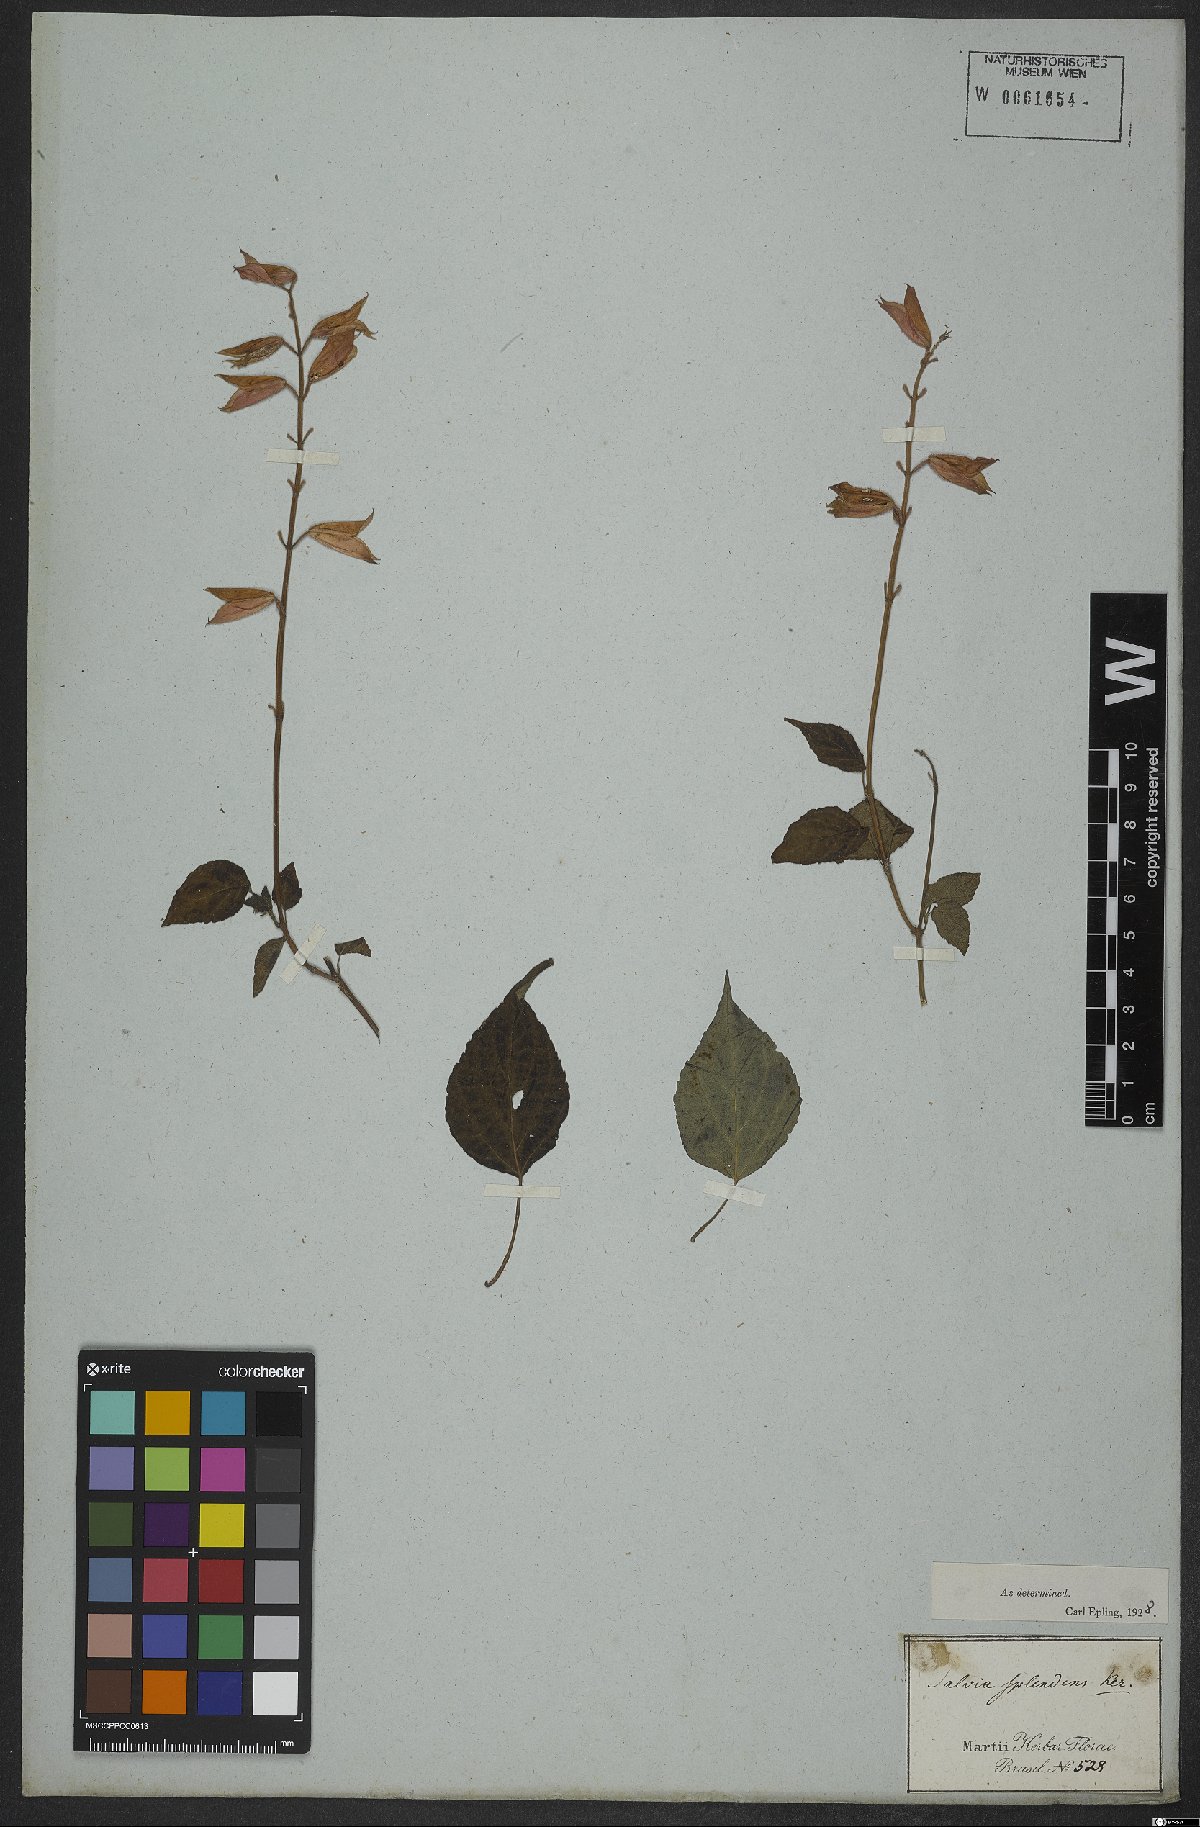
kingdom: Plantae
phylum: Tracheophyta
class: Magnoliopsida
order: Lamiales
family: Lamiaceae
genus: Salvia
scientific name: Salvia splendens
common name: Scarlet sage
